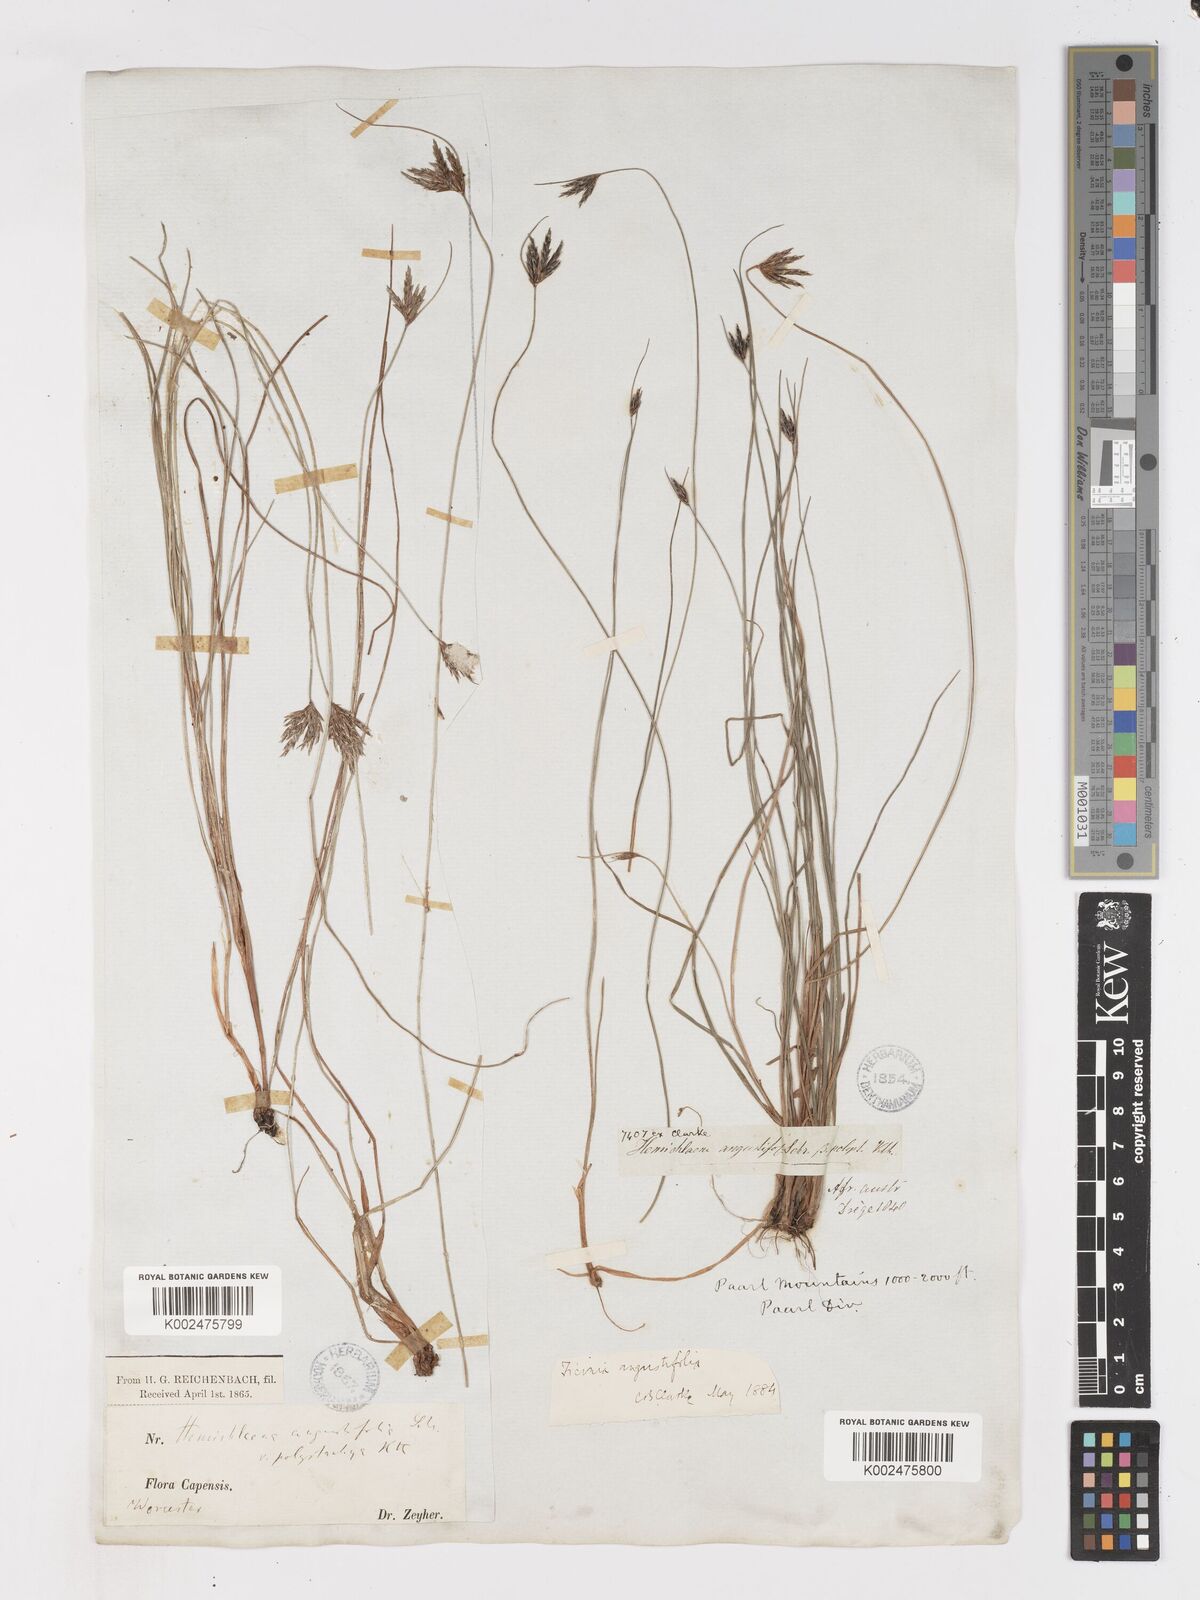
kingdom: Plantae
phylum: Tracheophyta
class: Liliopsida
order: Poales
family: Cyperaceae
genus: Ficinia
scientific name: Ficinia angustifolia
